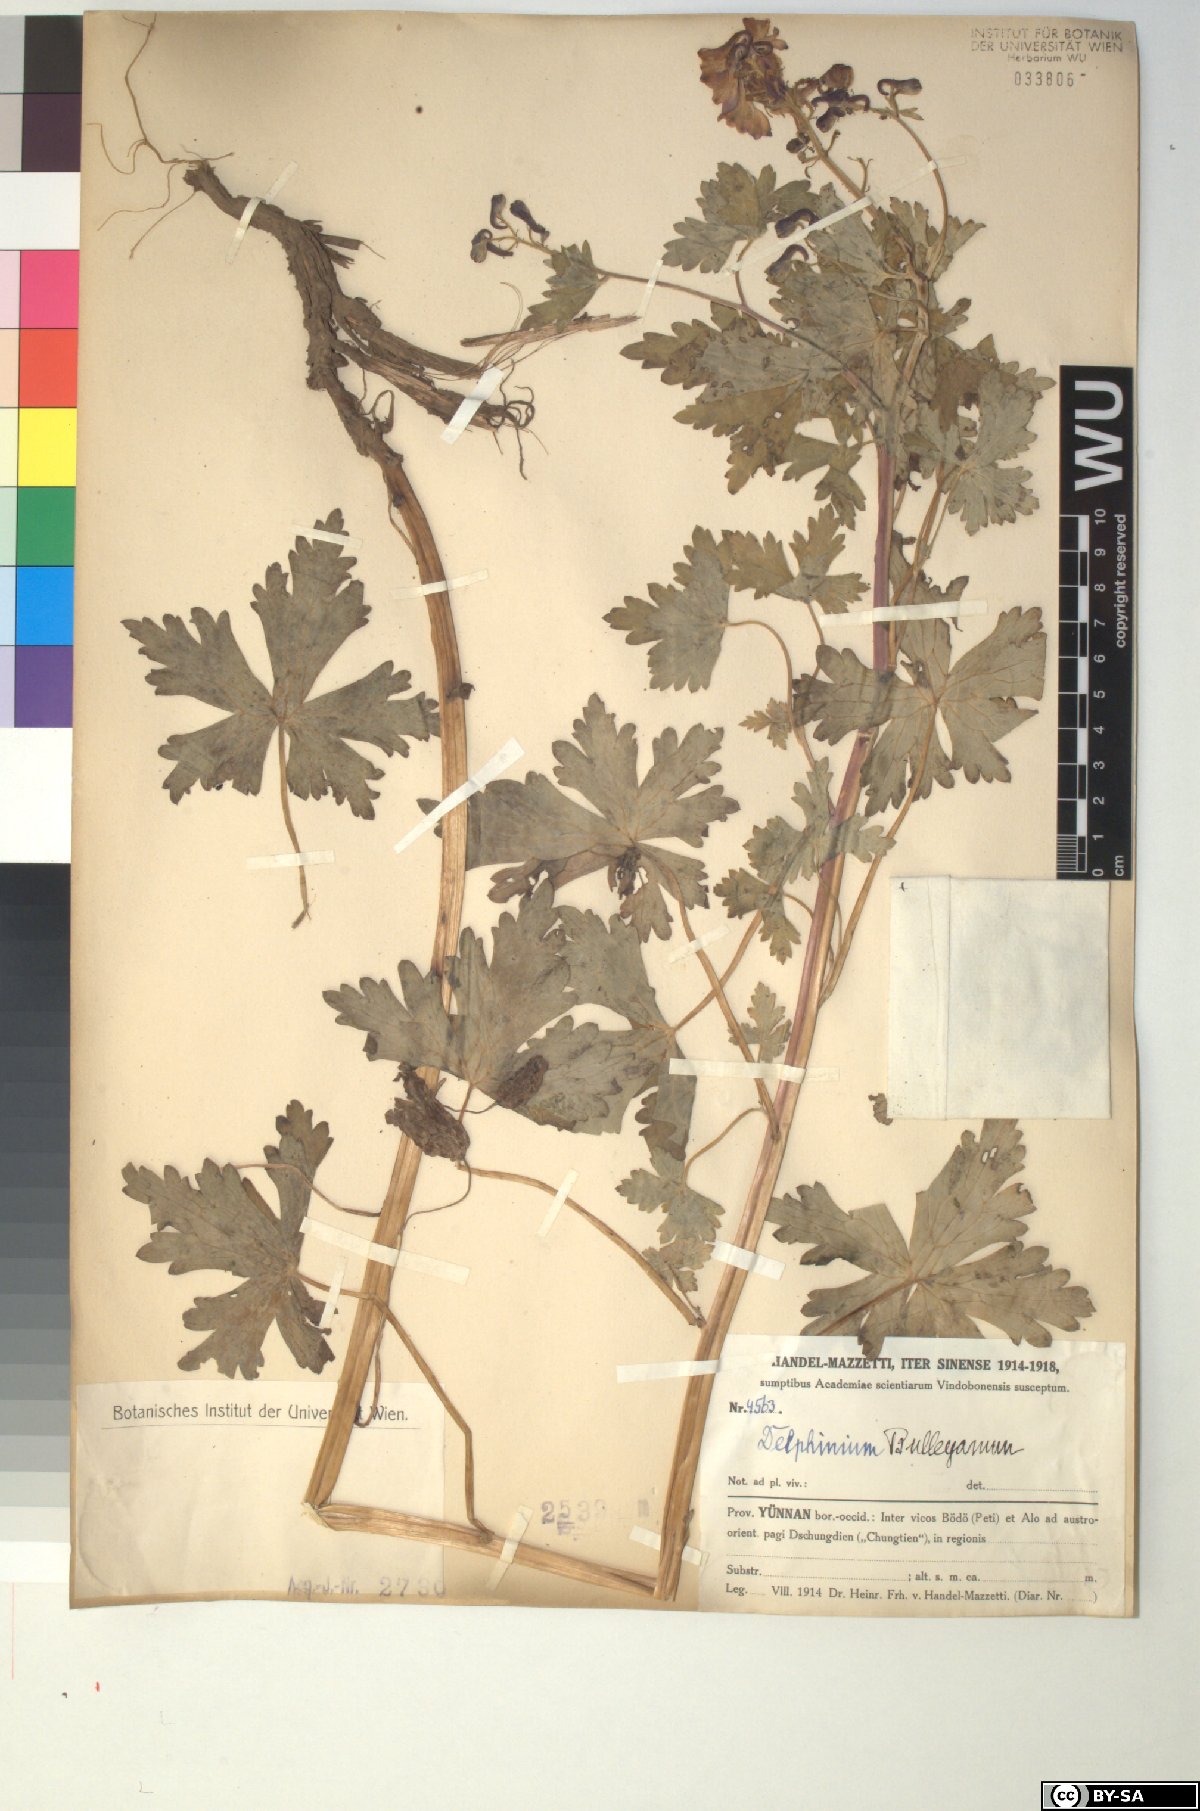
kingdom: Plantae
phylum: Tracheophyta
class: Magnoliopsida
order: Ranunculales
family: Ranunculaceae
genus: Delphinium
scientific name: Delphinium bulleyanum
